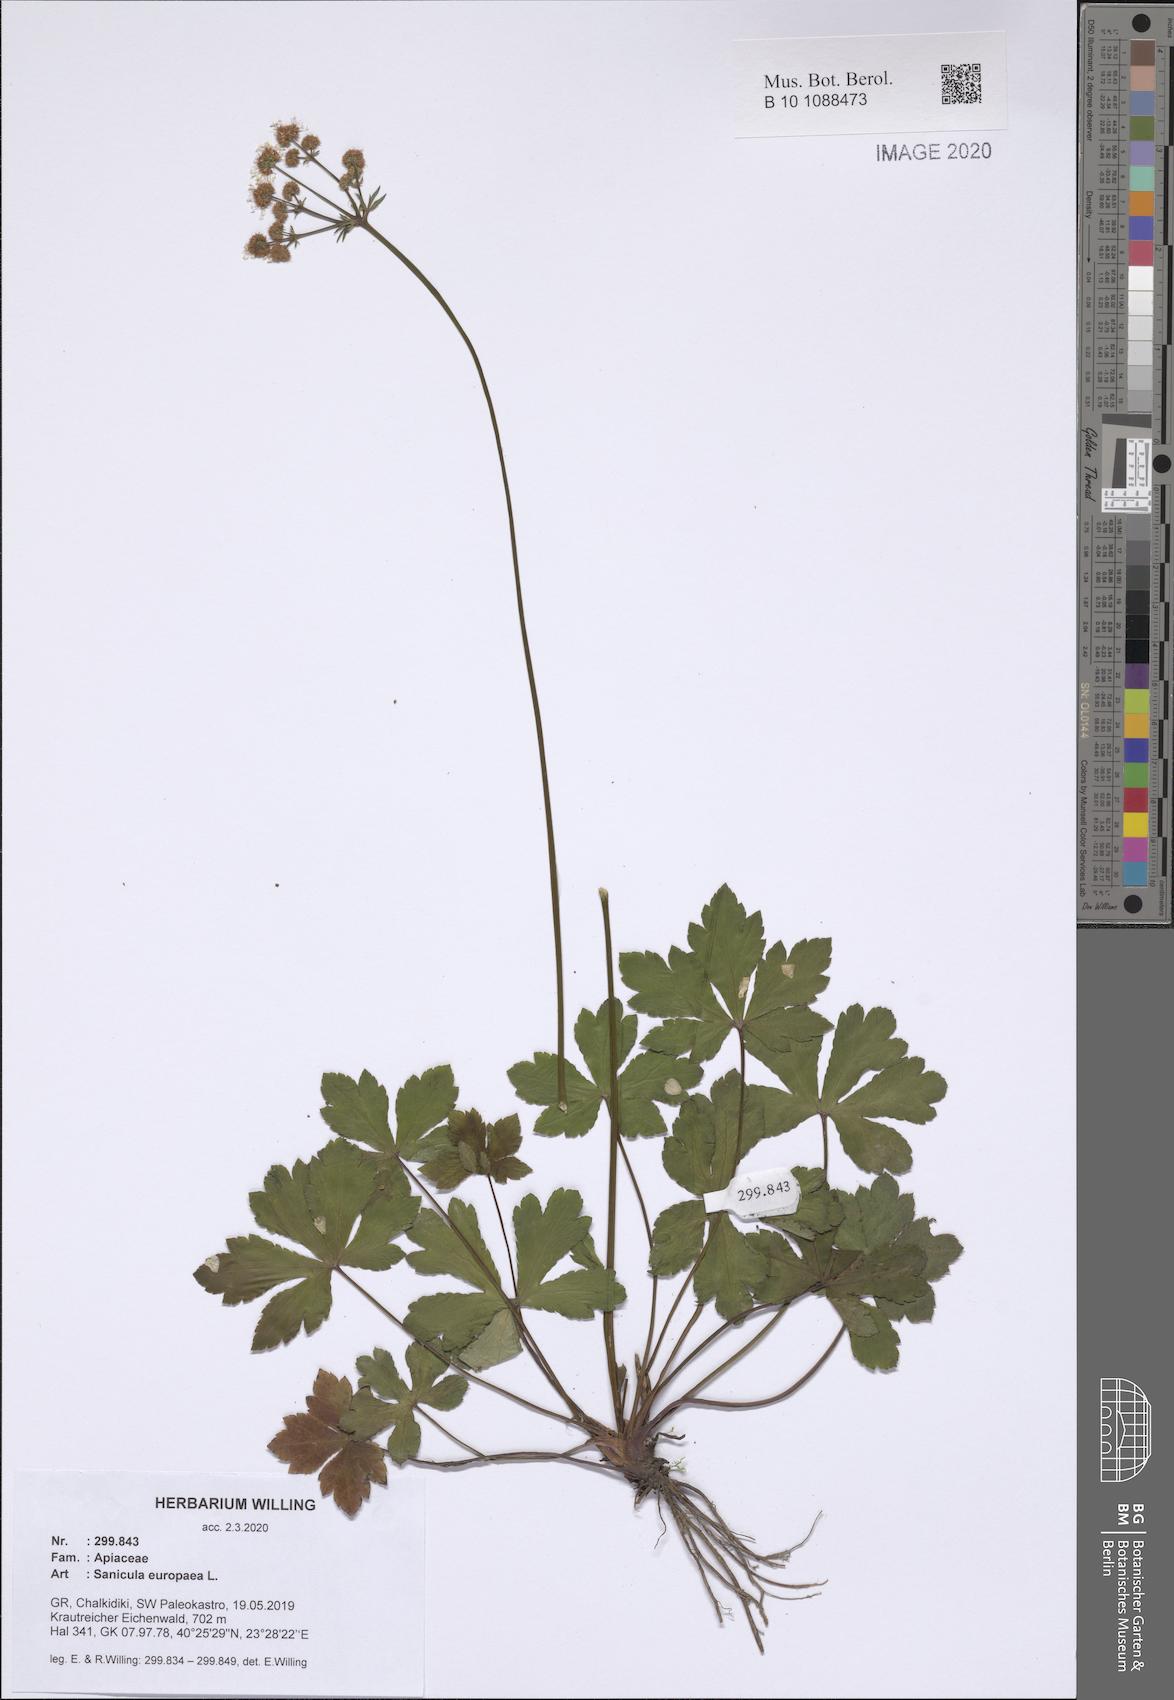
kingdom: Plantae
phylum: Tracheophyta
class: Magnoliopsida
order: Apiales
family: Apiaceae
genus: Sanicula
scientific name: Sanicula europaea
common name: Sanicle
